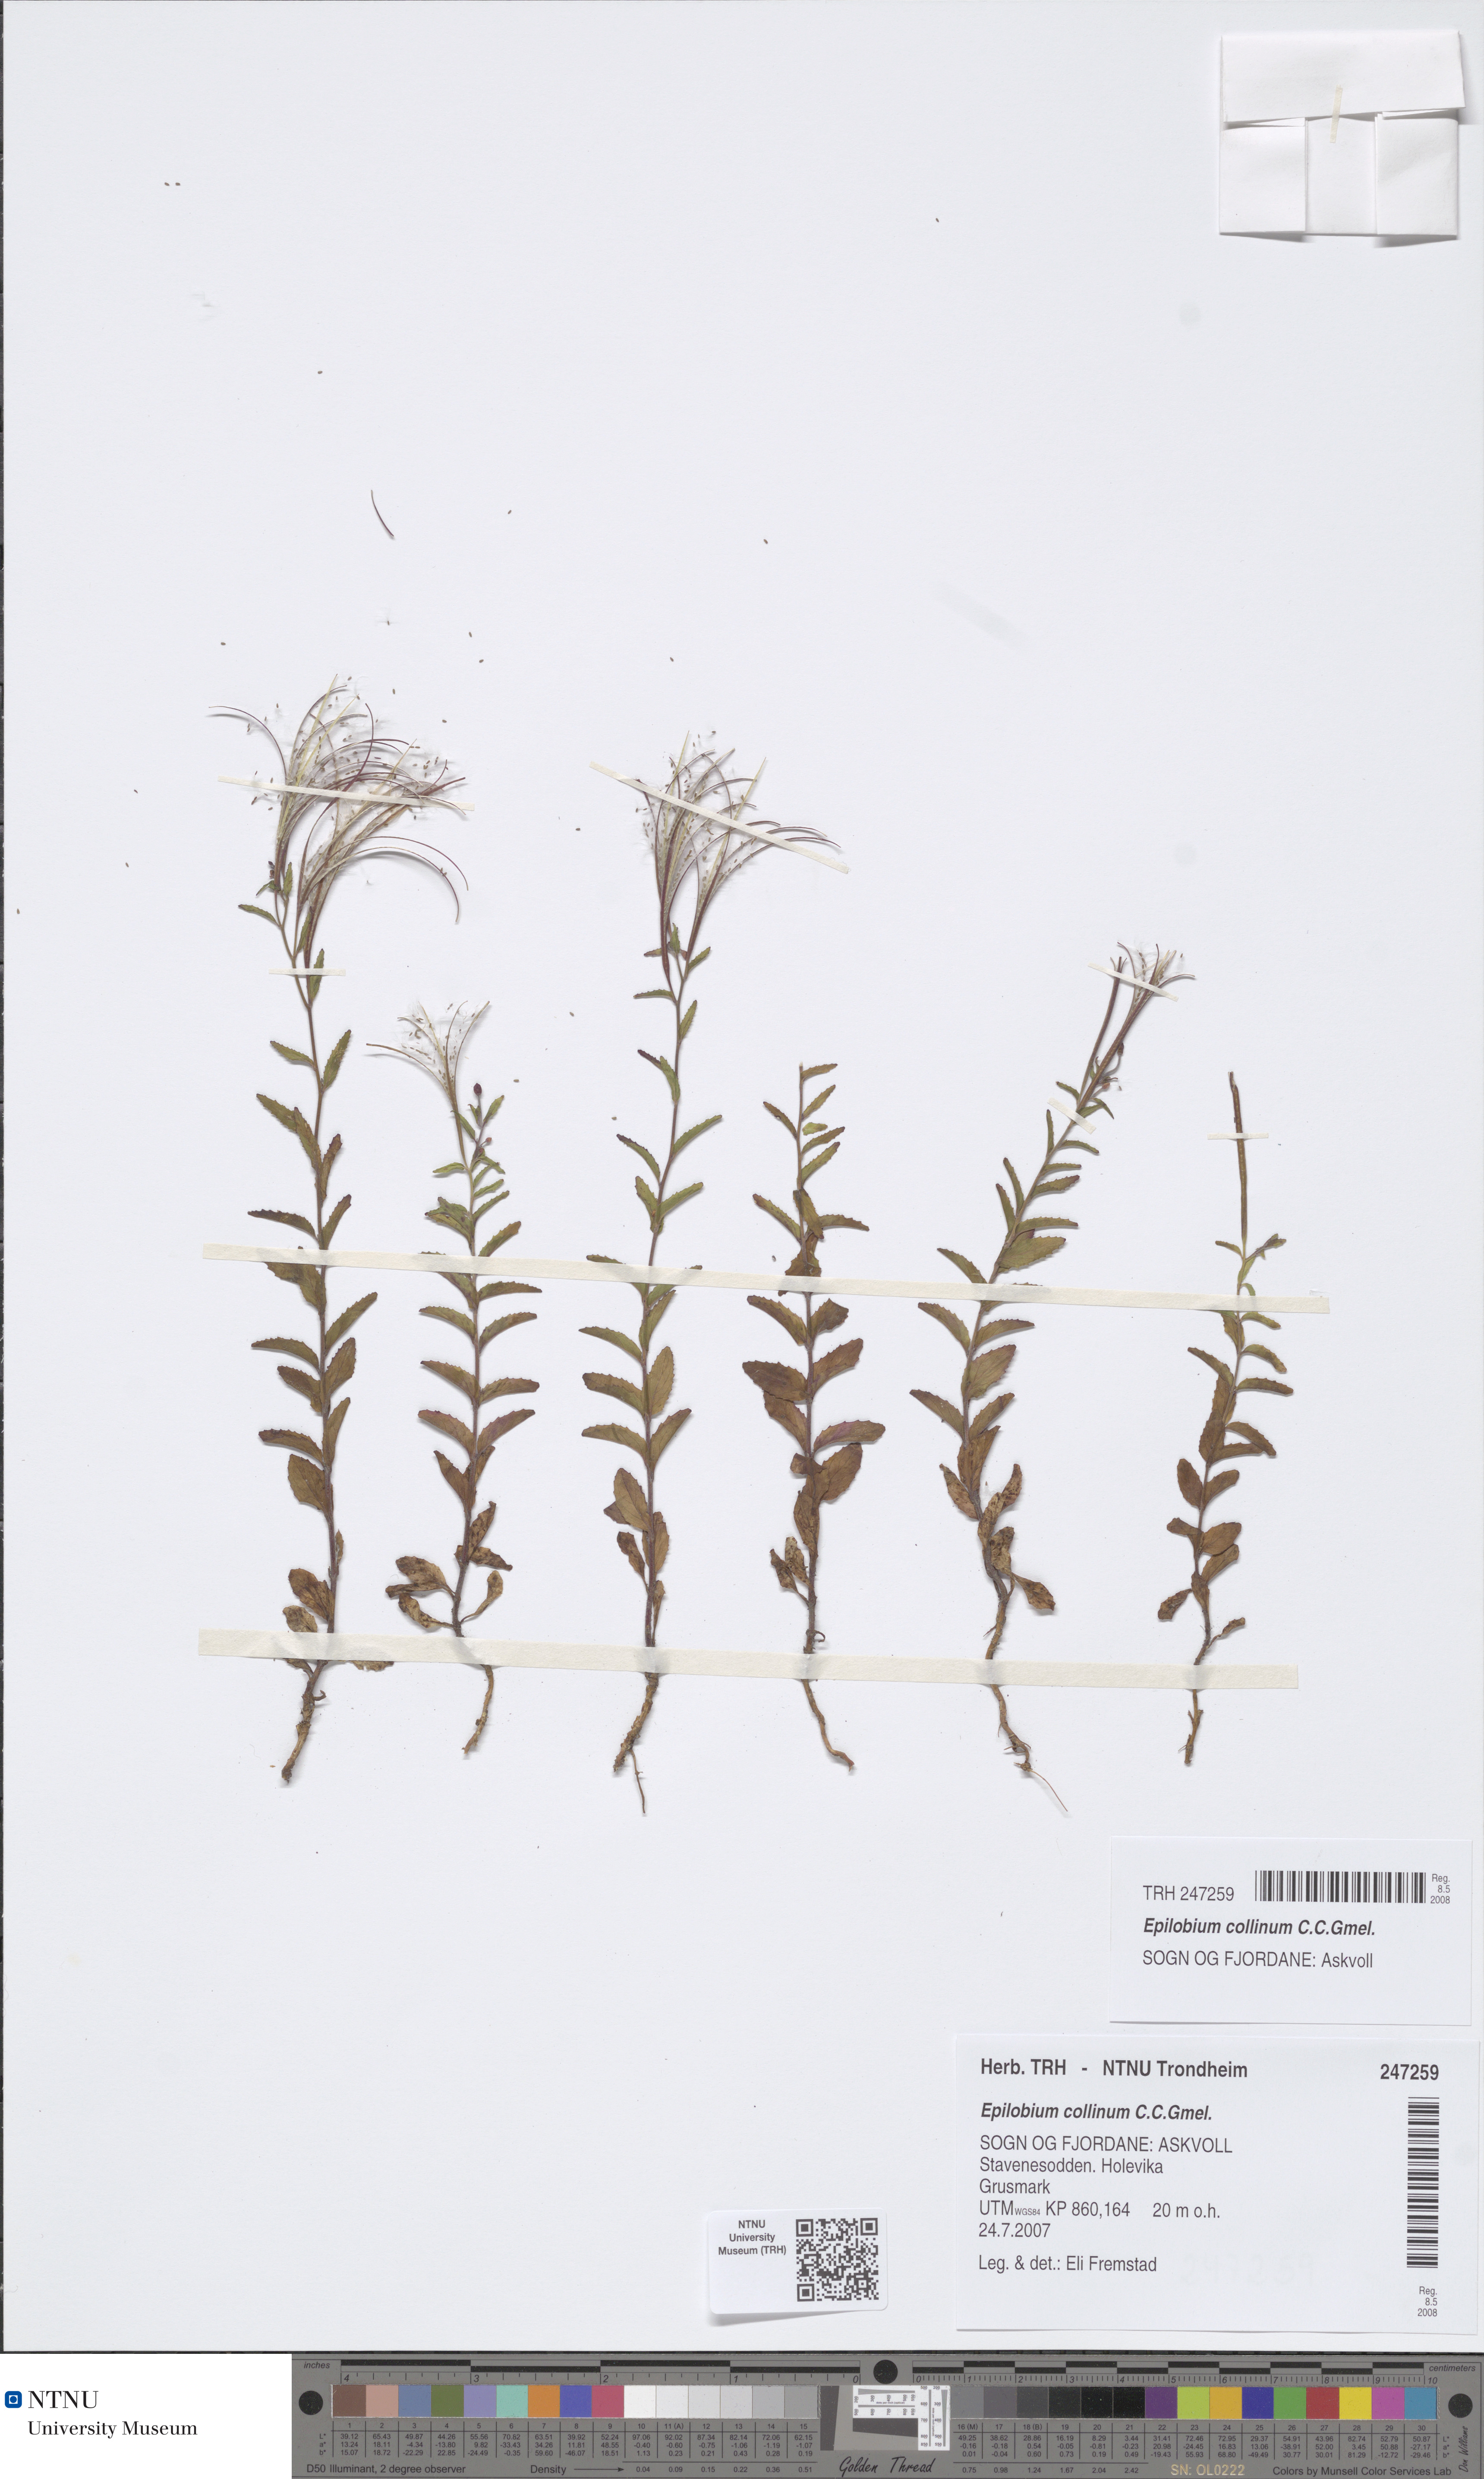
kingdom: Plantae
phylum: Tracheophyta
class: Magnoliopsida
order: Myrtales
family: Onagraceae
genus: Epilobium
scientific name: Epilobium collinum
